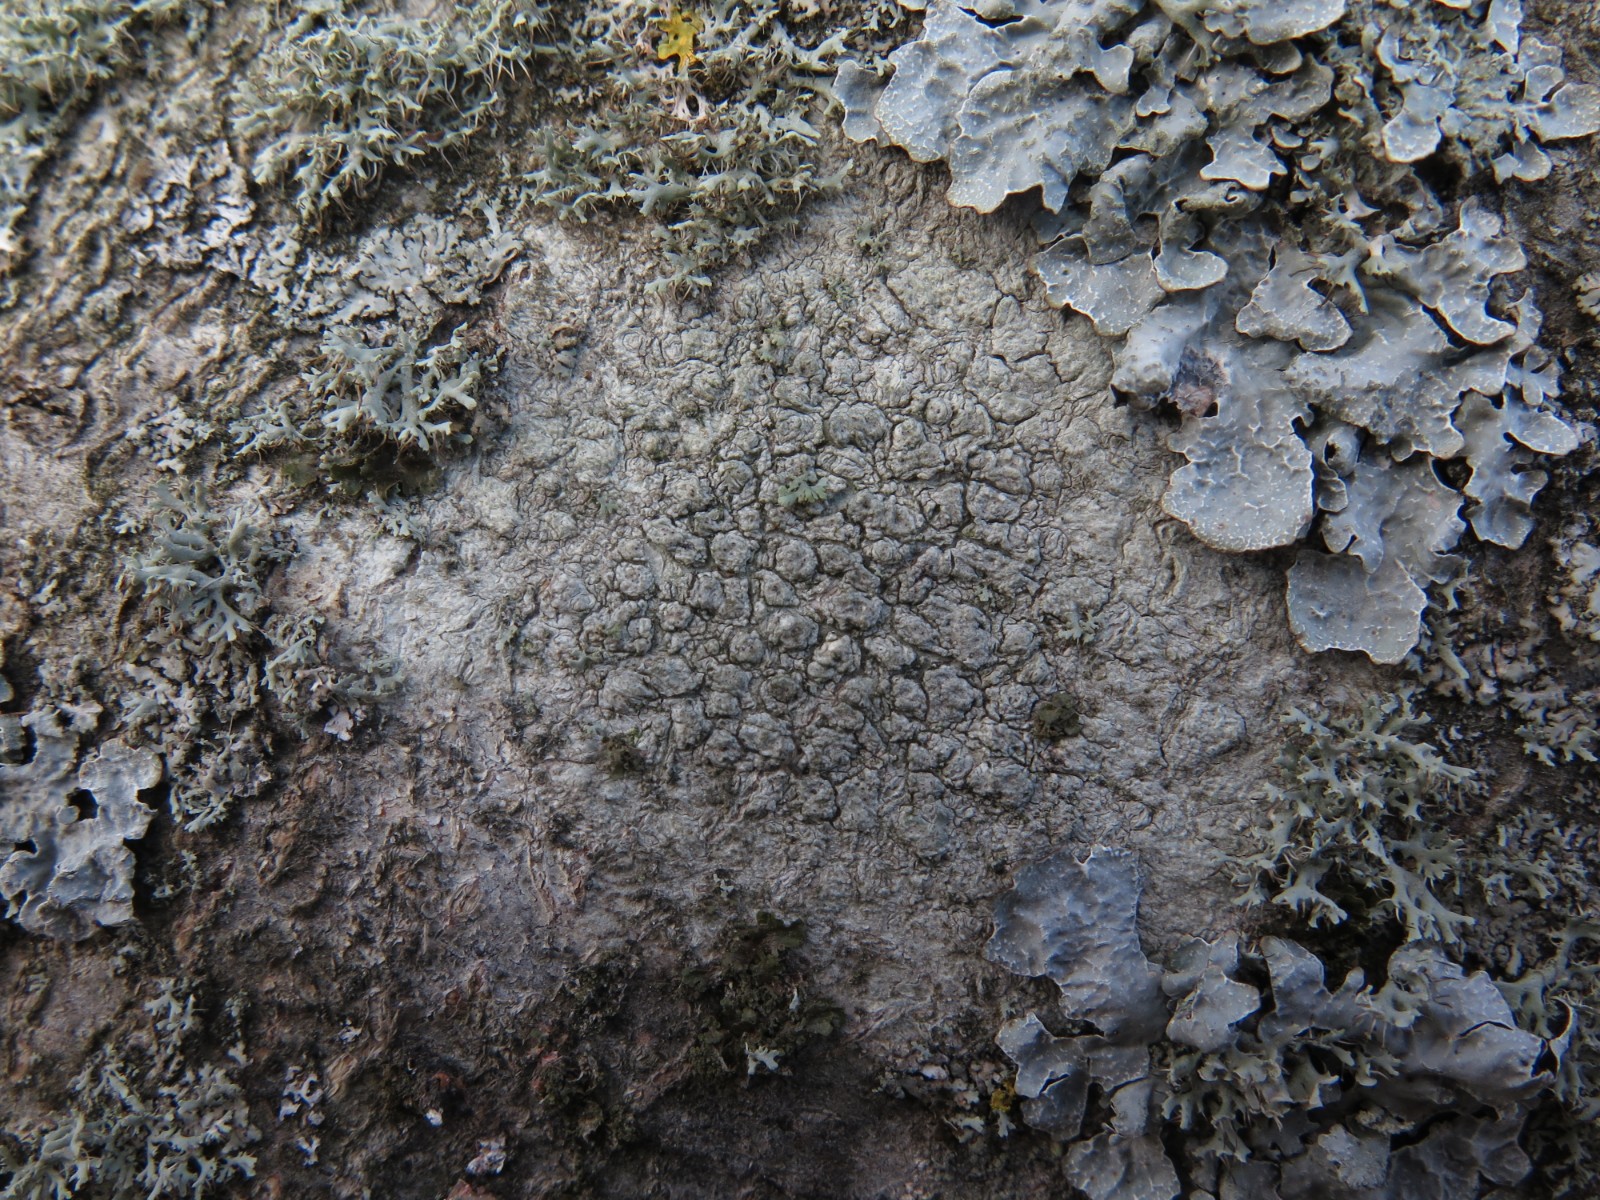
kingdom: Fungi
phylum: Ascomycota
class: Lecanoromycetes
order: Pertusariales
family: Pertusariaceae
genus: Pertusaria
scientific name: Pertusaria pertusa
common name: almindelig prikvortelav
